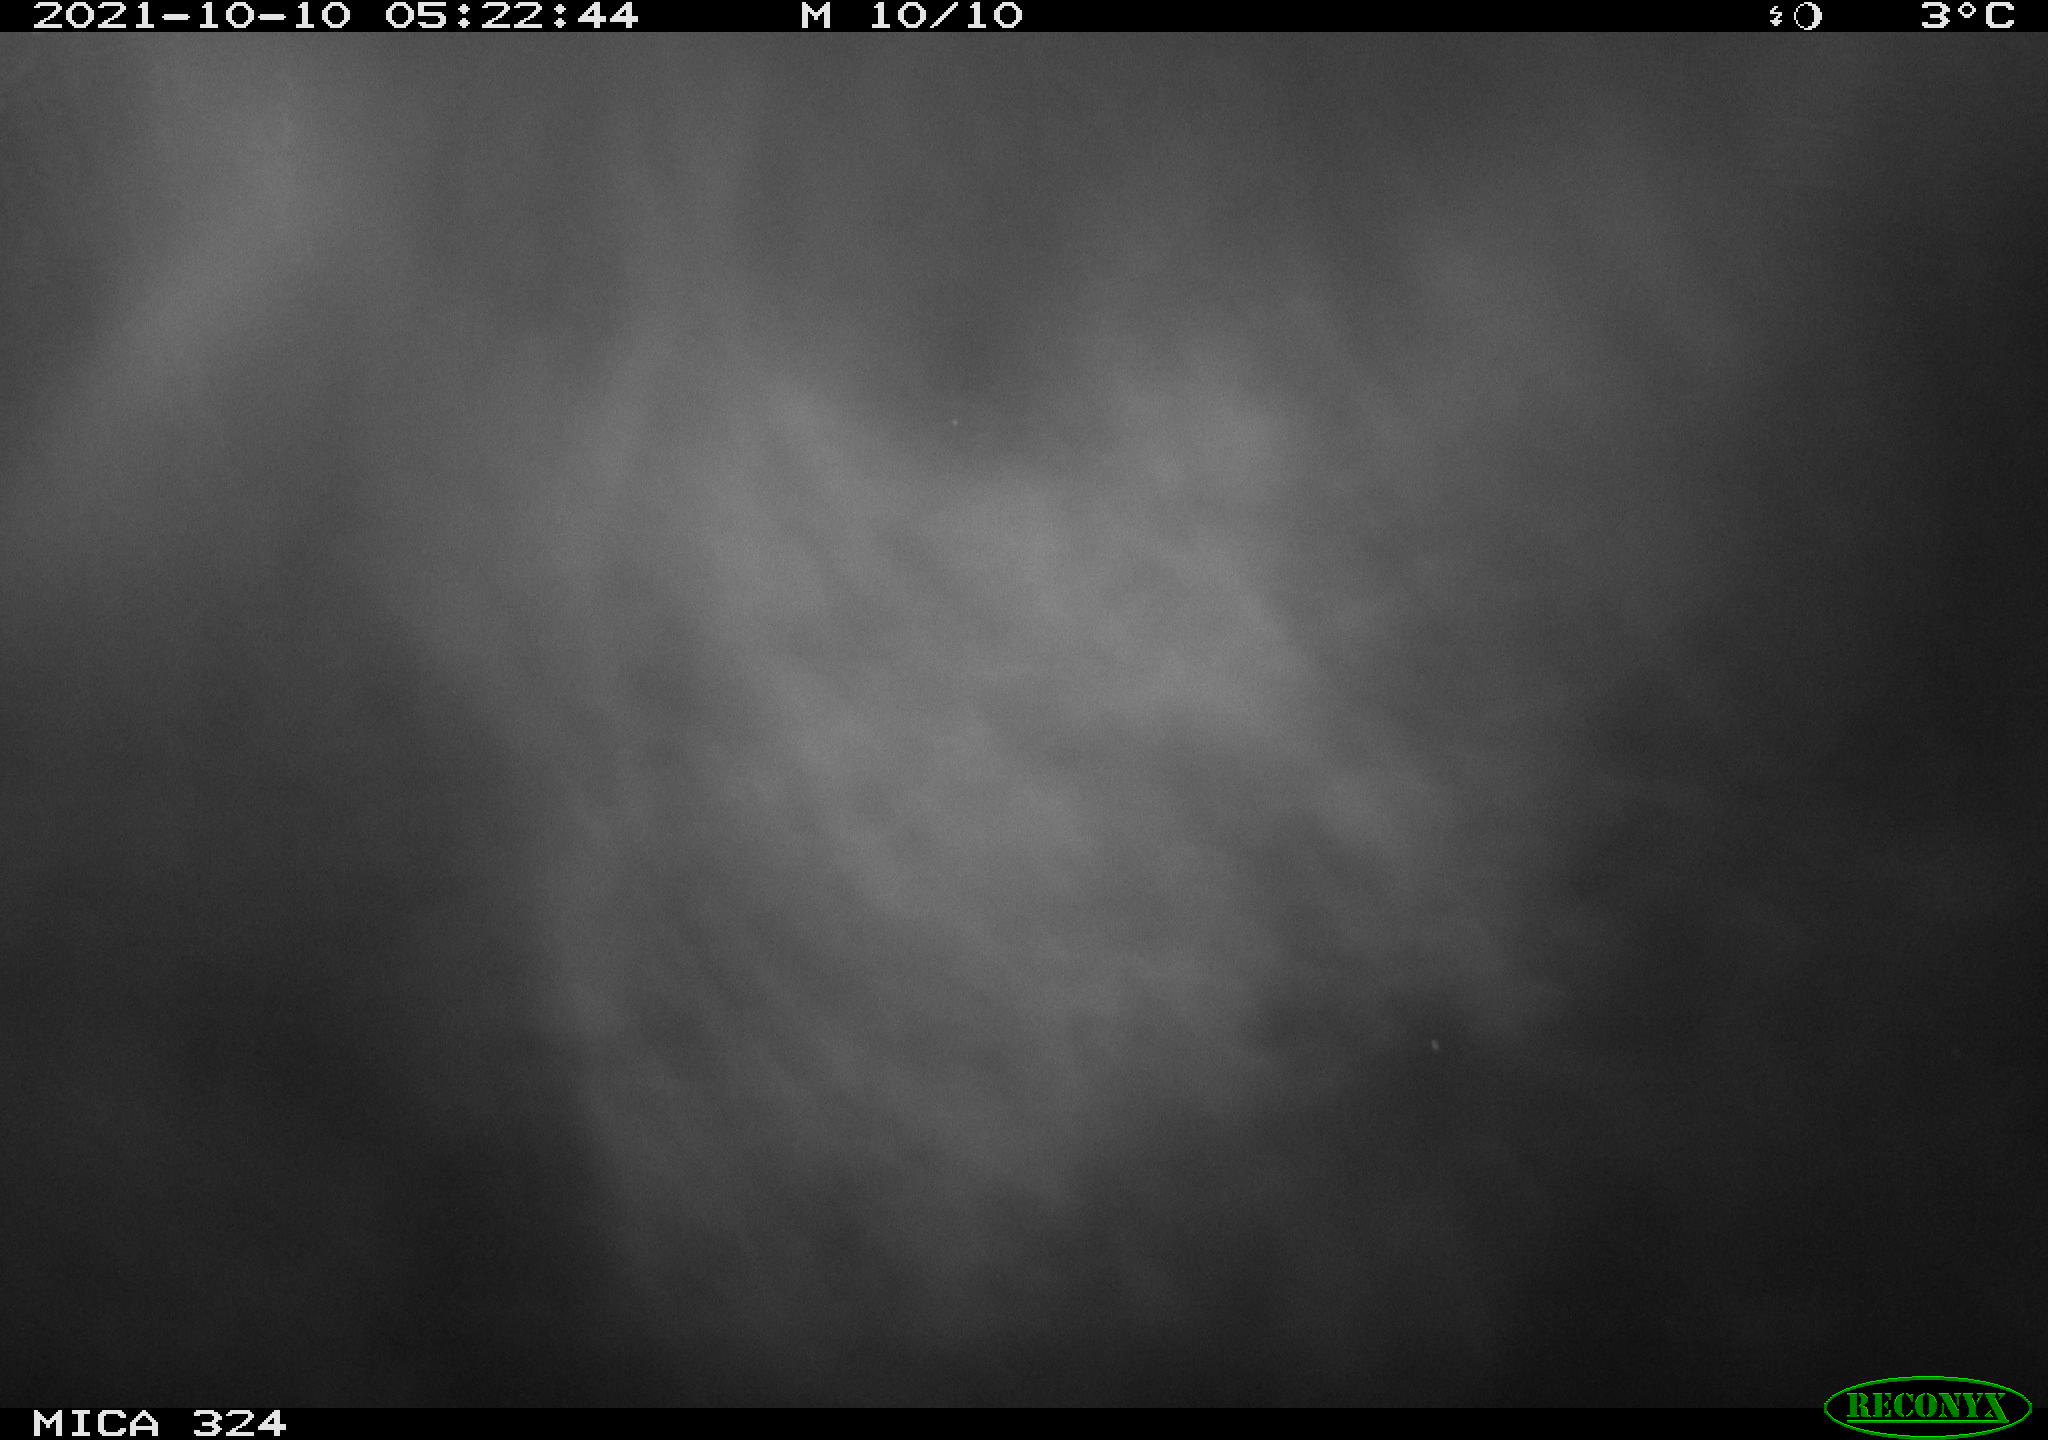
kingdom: Animalia
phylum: Chordata
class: Mammalia
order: Rodentia
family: Cricetidae
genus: Ondatra
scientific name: Ondatra zibethicus
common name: Muskrat
